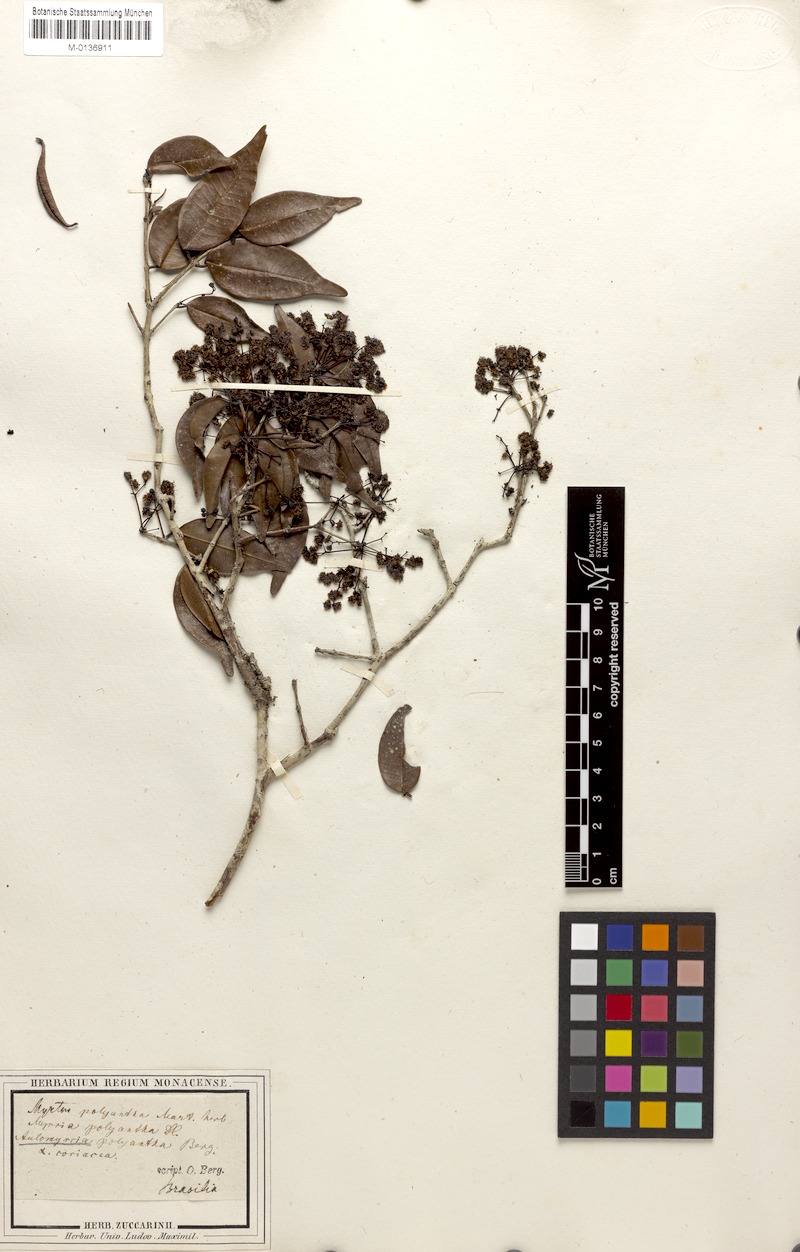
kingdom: Plantae
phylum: Tracheophyta
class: Magnoliopsida
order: Myrtales
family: Myrtaceae
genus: Myrcia
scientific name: Myrcia neopolyantha
